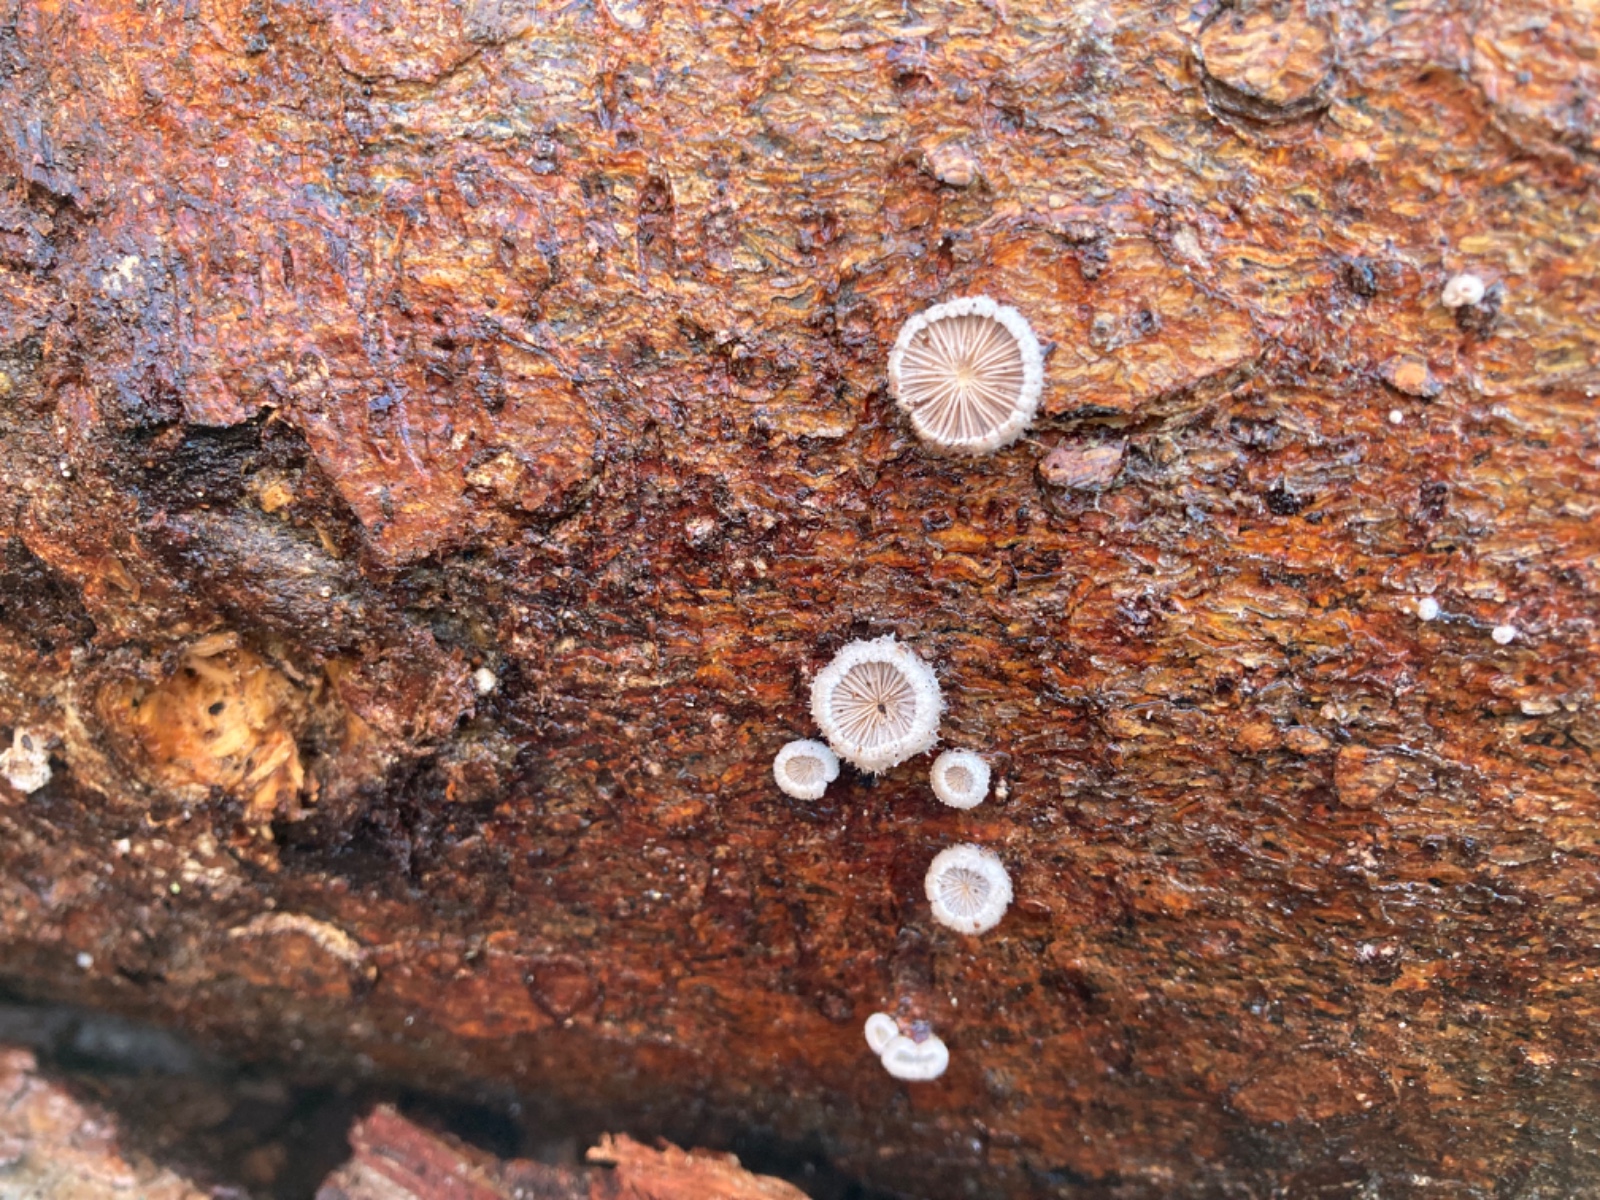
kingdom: Fungi
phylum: Basidiomycota
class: Agaricomycetes
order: Agaricales
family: Schizophyllaceae
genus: Schizophyllum
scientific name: Schizophyllum commune
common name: kløvblad
